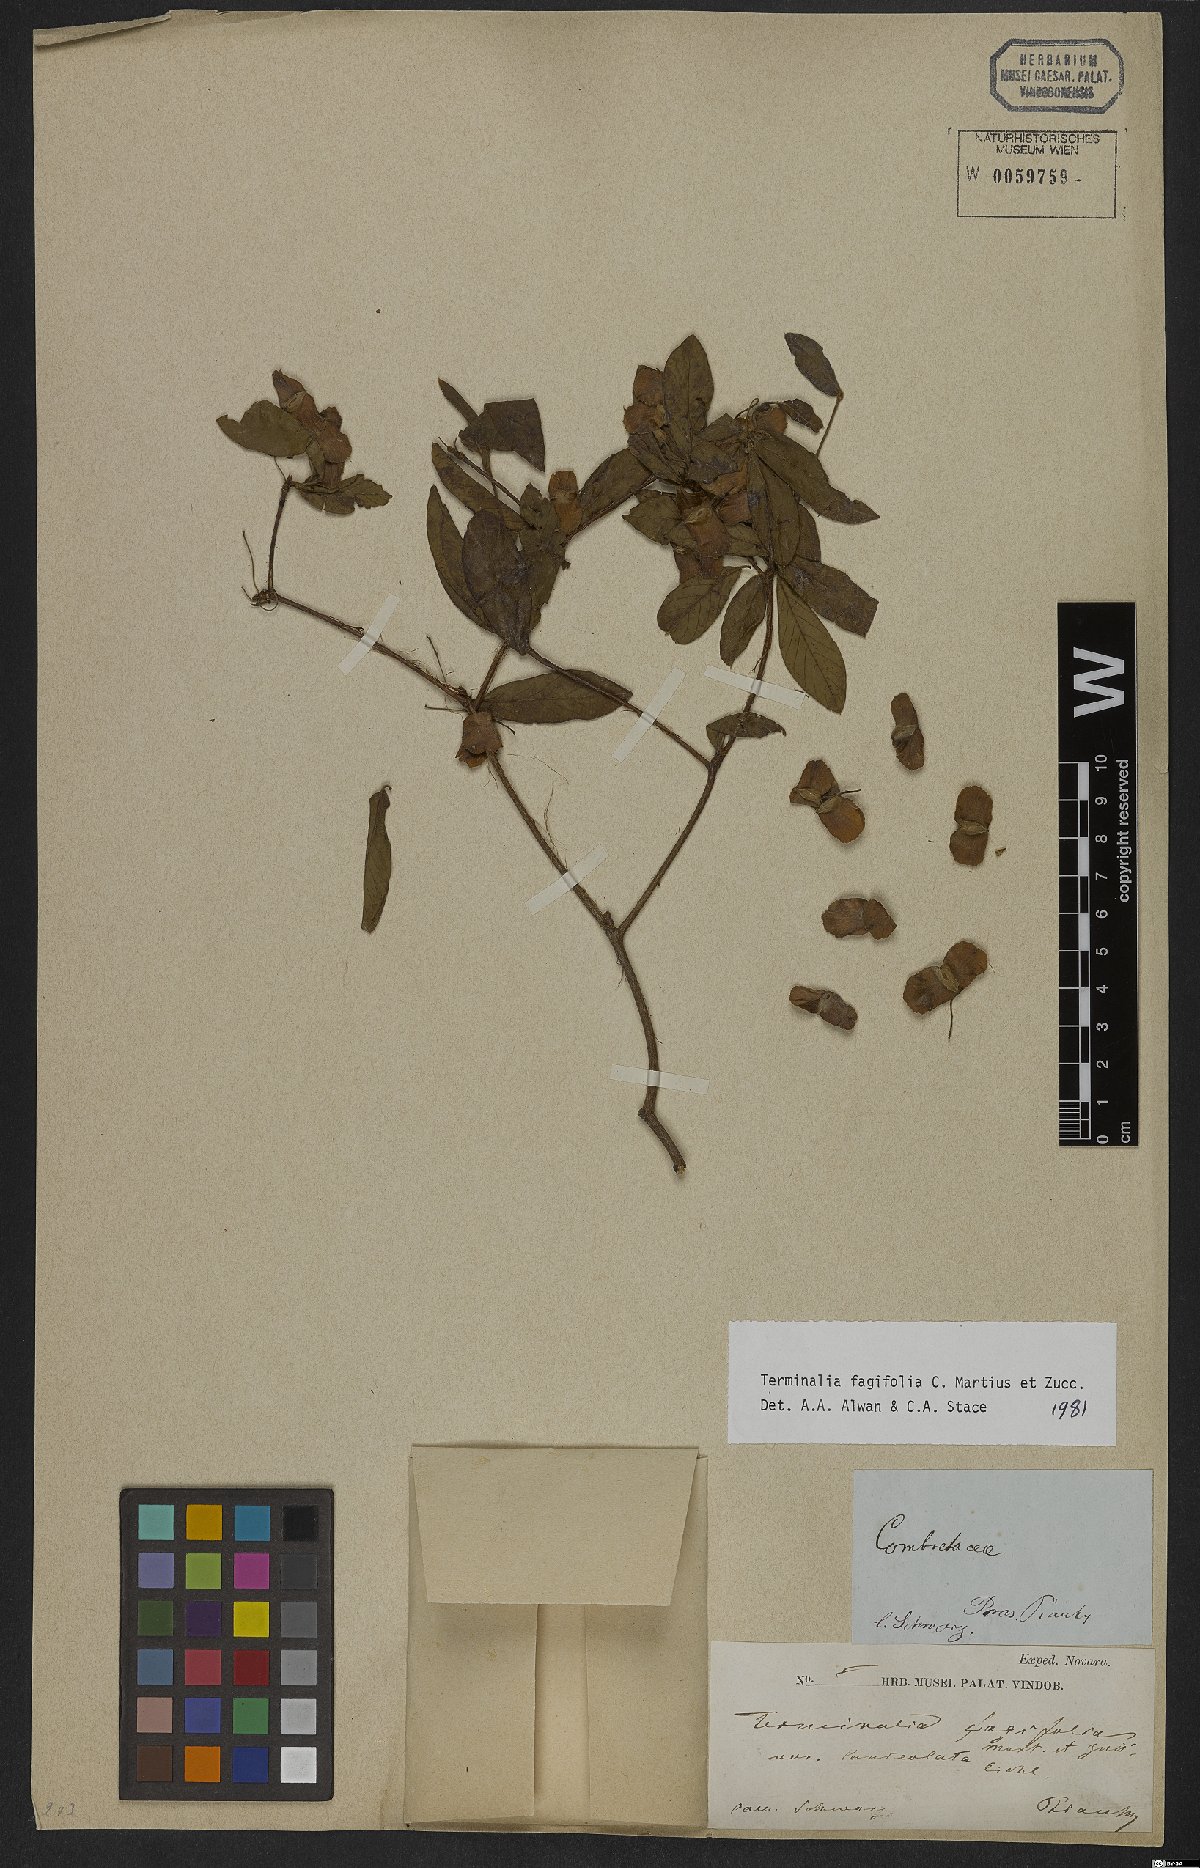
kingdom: Plantae
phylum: Tracheophyta
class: Magnoliopsida
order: Myrtales
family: Combretaceae
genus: Terminalia
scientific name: Terminalia fagifolia
